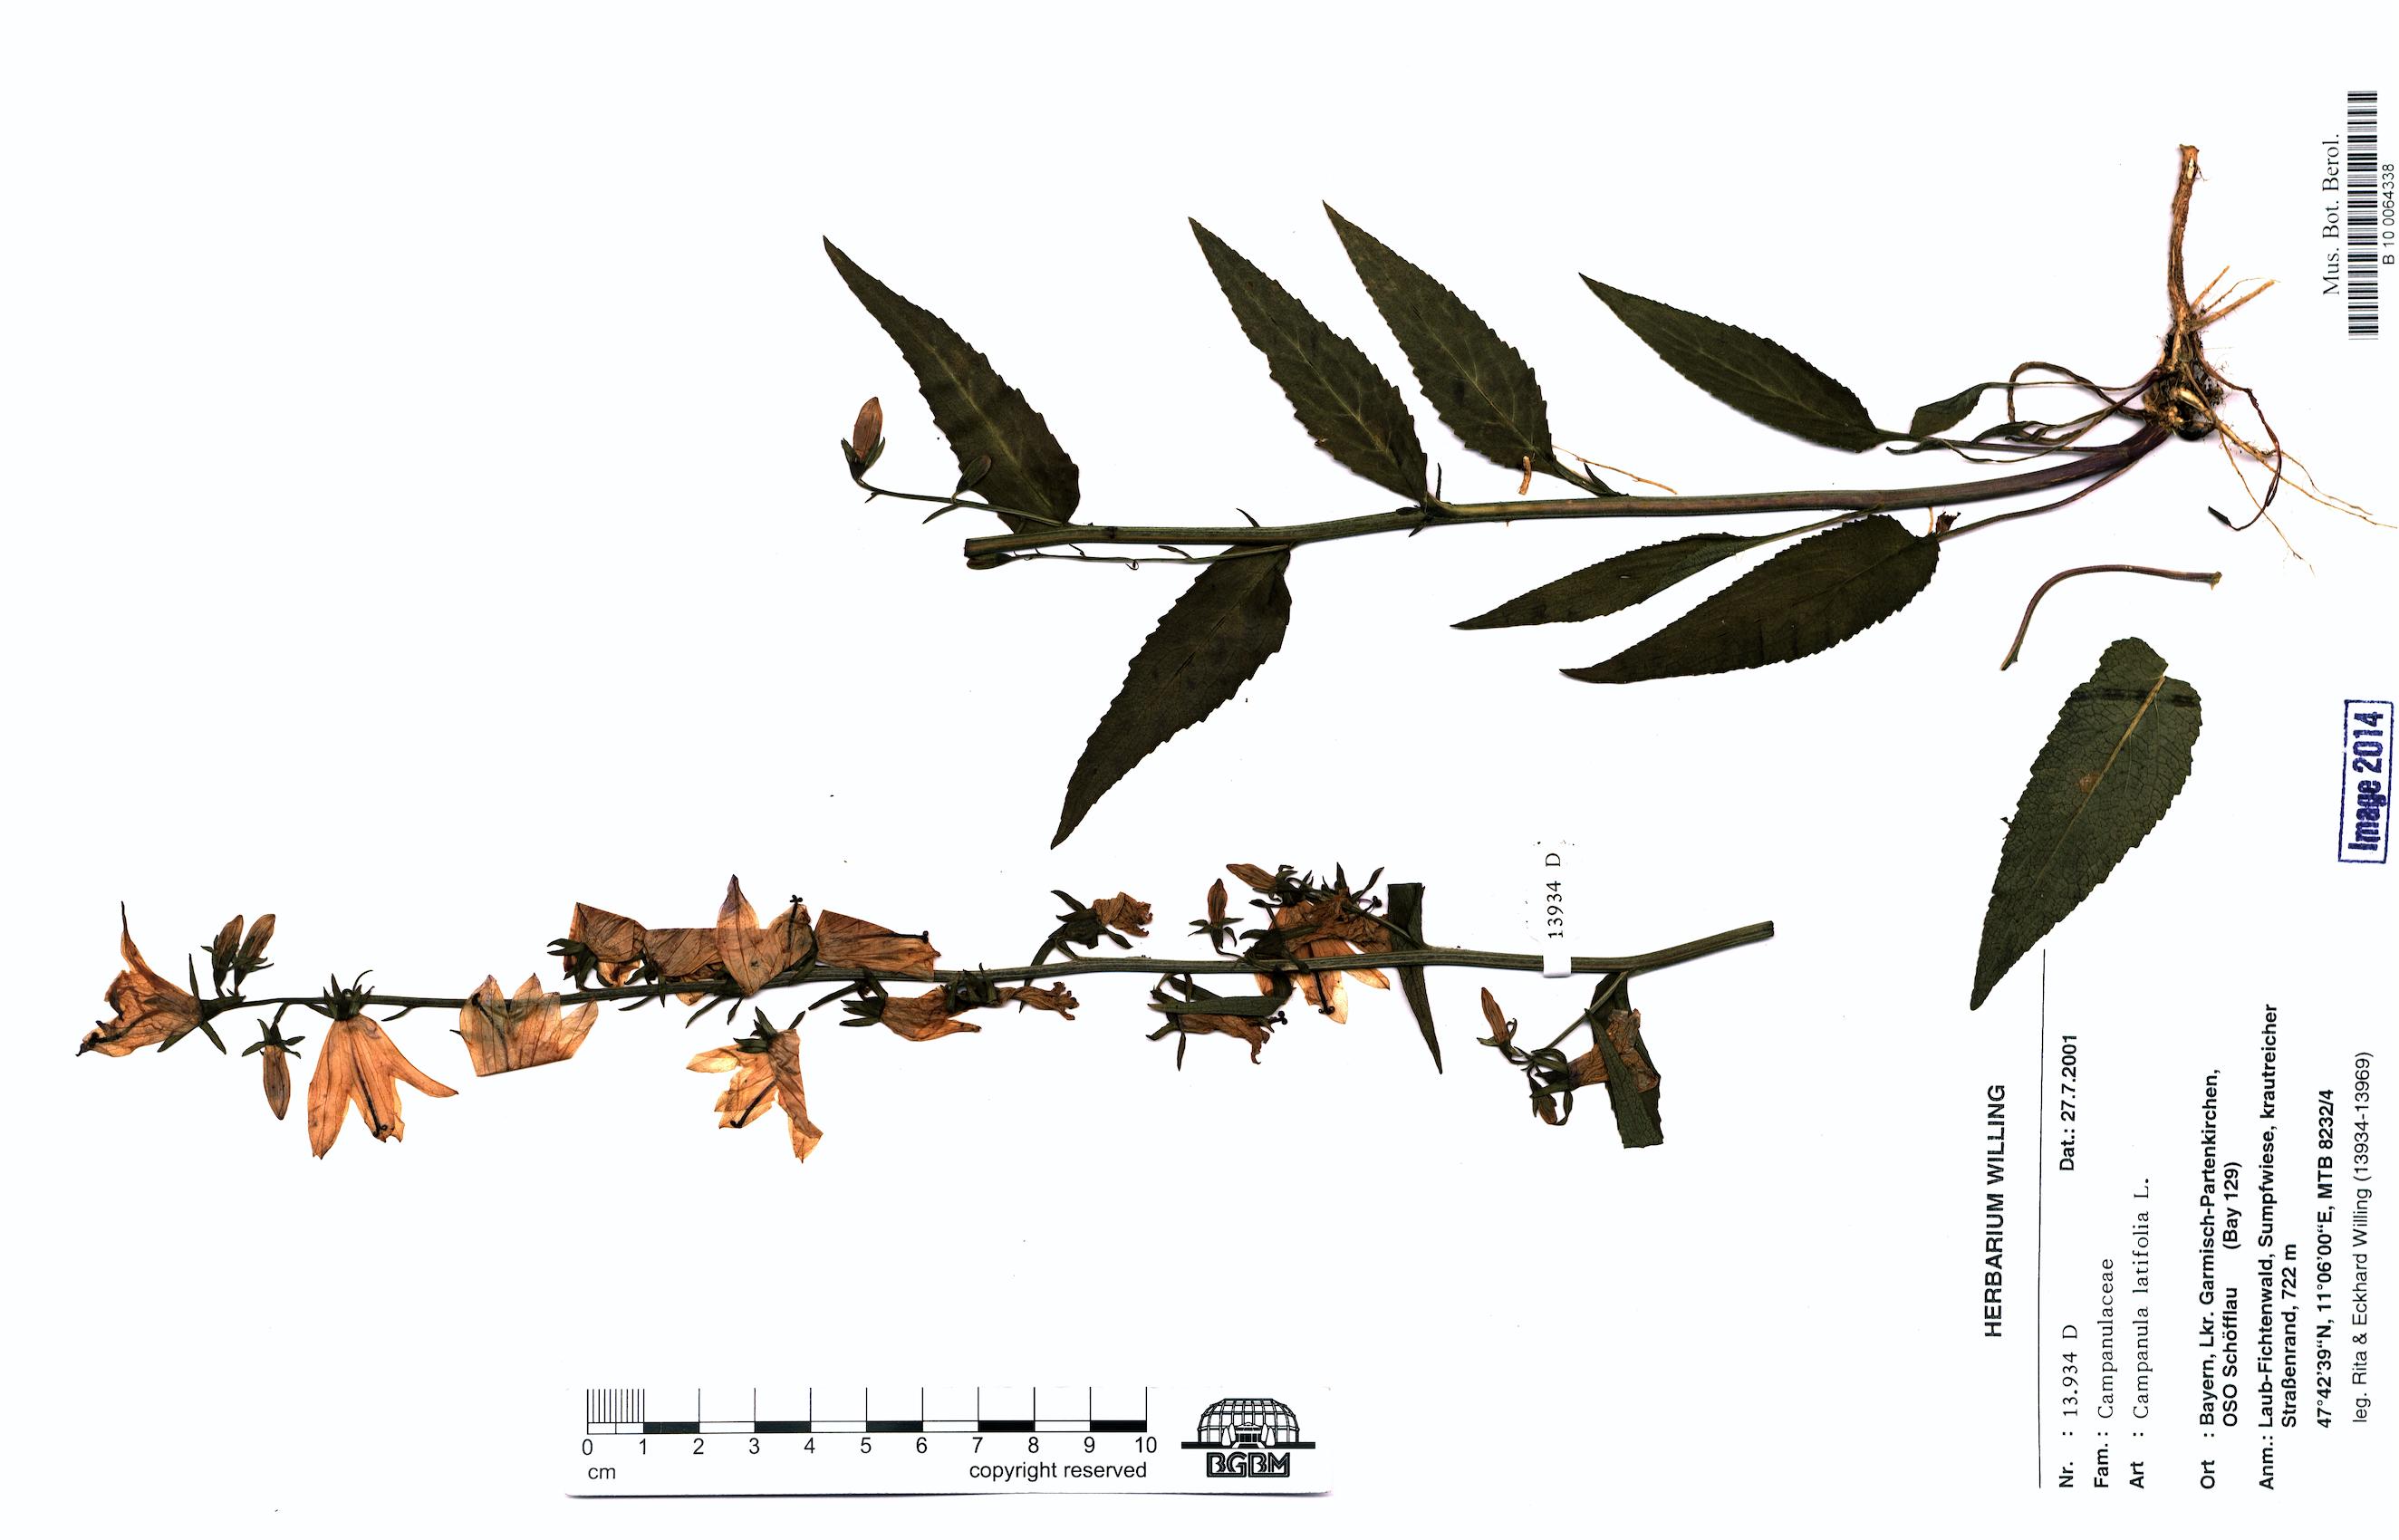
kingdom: Plantae
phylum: Tracheophyta
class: Magnoliopsida
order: Asterales
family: Campanulaceae
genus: Campanula
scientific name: Campanula latifolia
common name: Giant bellflower
